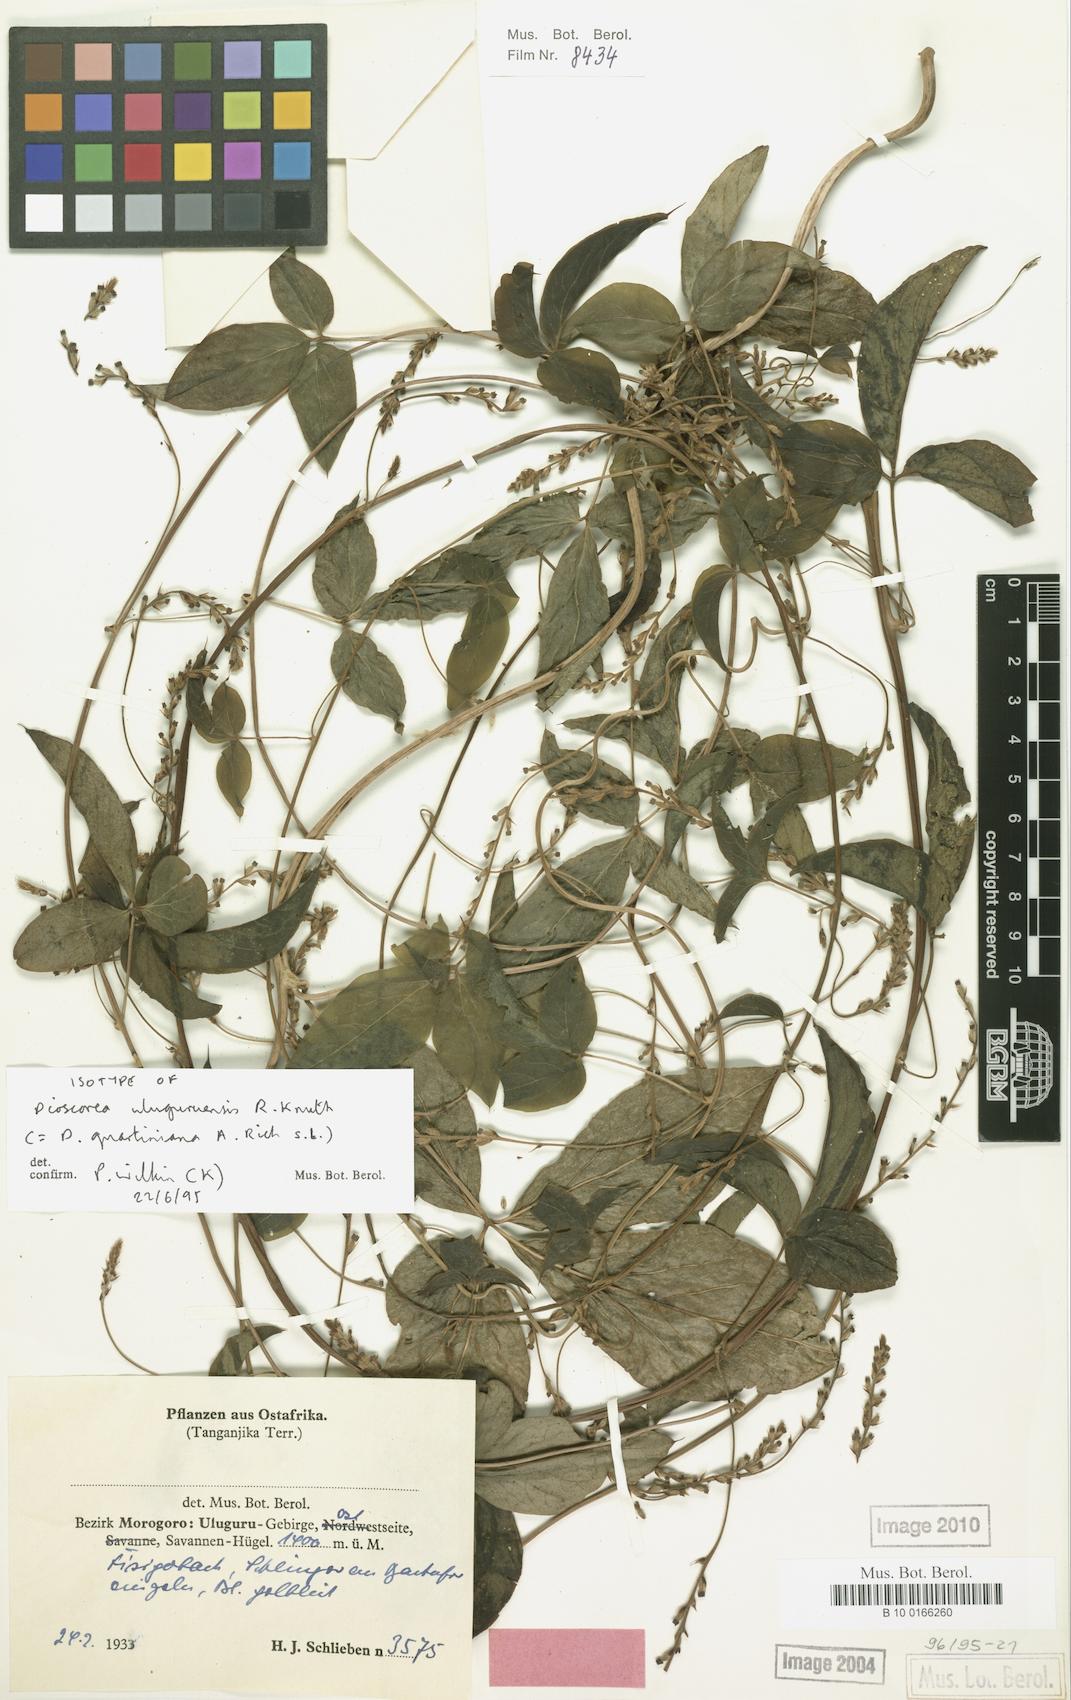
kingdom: Plantae
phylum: Tracheophyta
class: Liliopsida
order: Dioscoreales
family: Dioscoreaceae
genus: Dioscorea
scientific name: Dioscorea quartiniana
